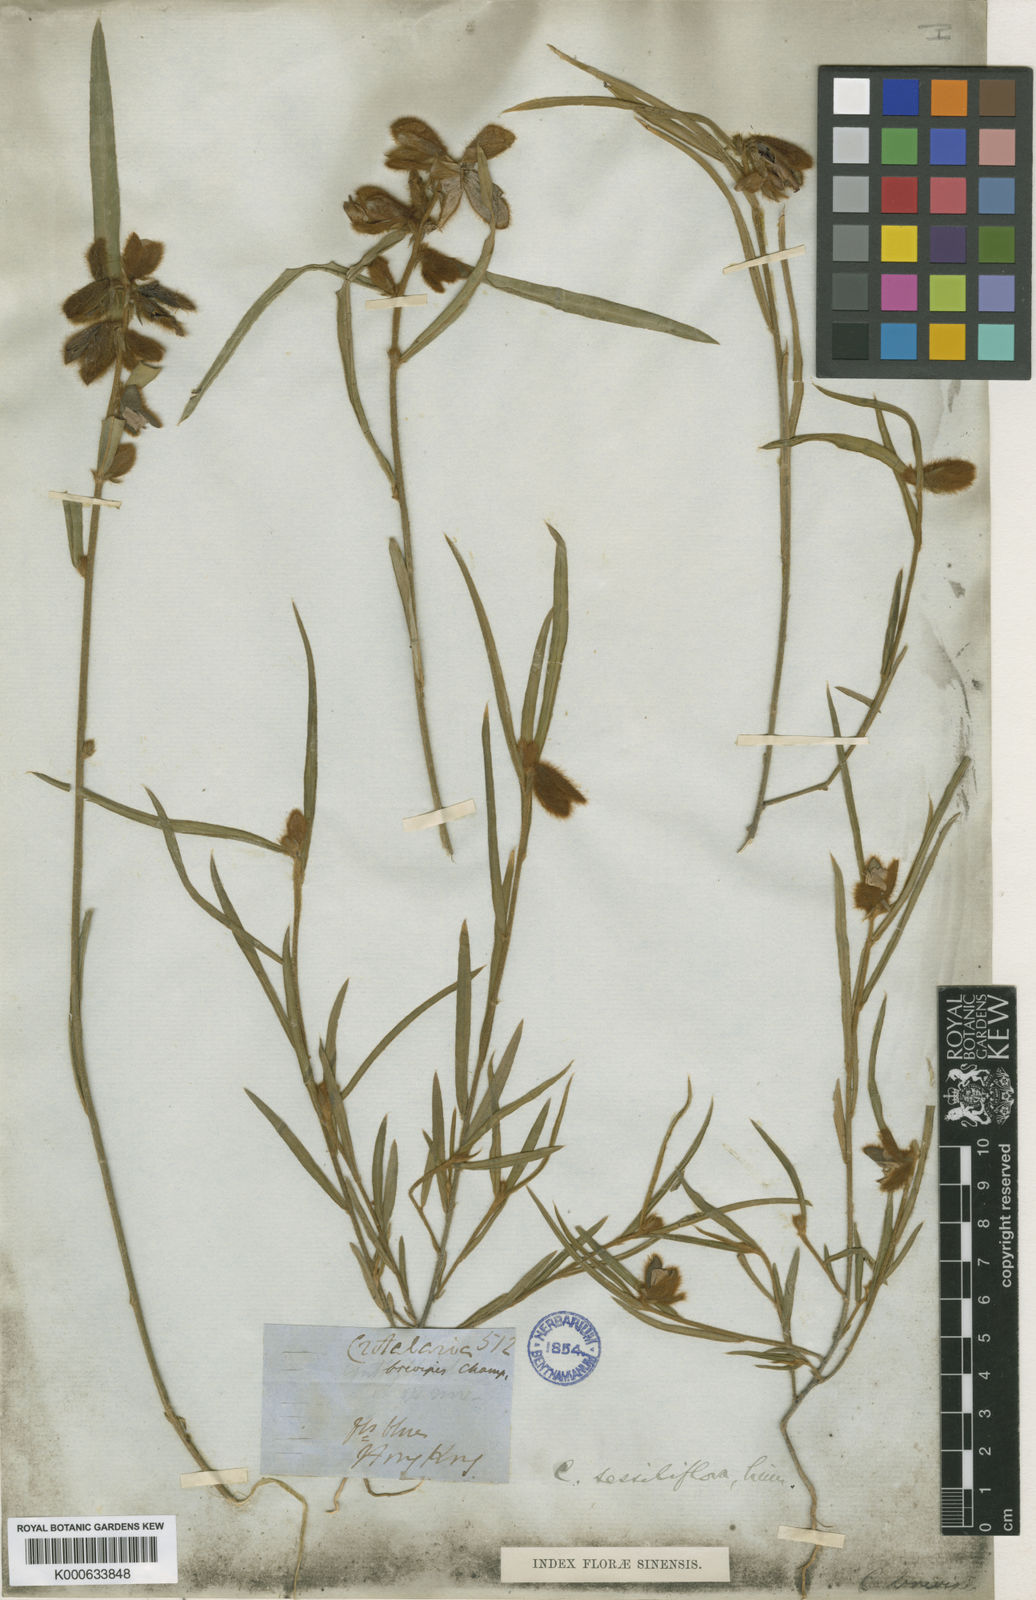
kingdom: Plantae
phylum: Tracheophyta
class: Magnoliopsida
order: Fabales
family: Fabaceae
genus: Crotalaria
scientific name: Crotalaria sessiliflora
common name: Rattlebox
